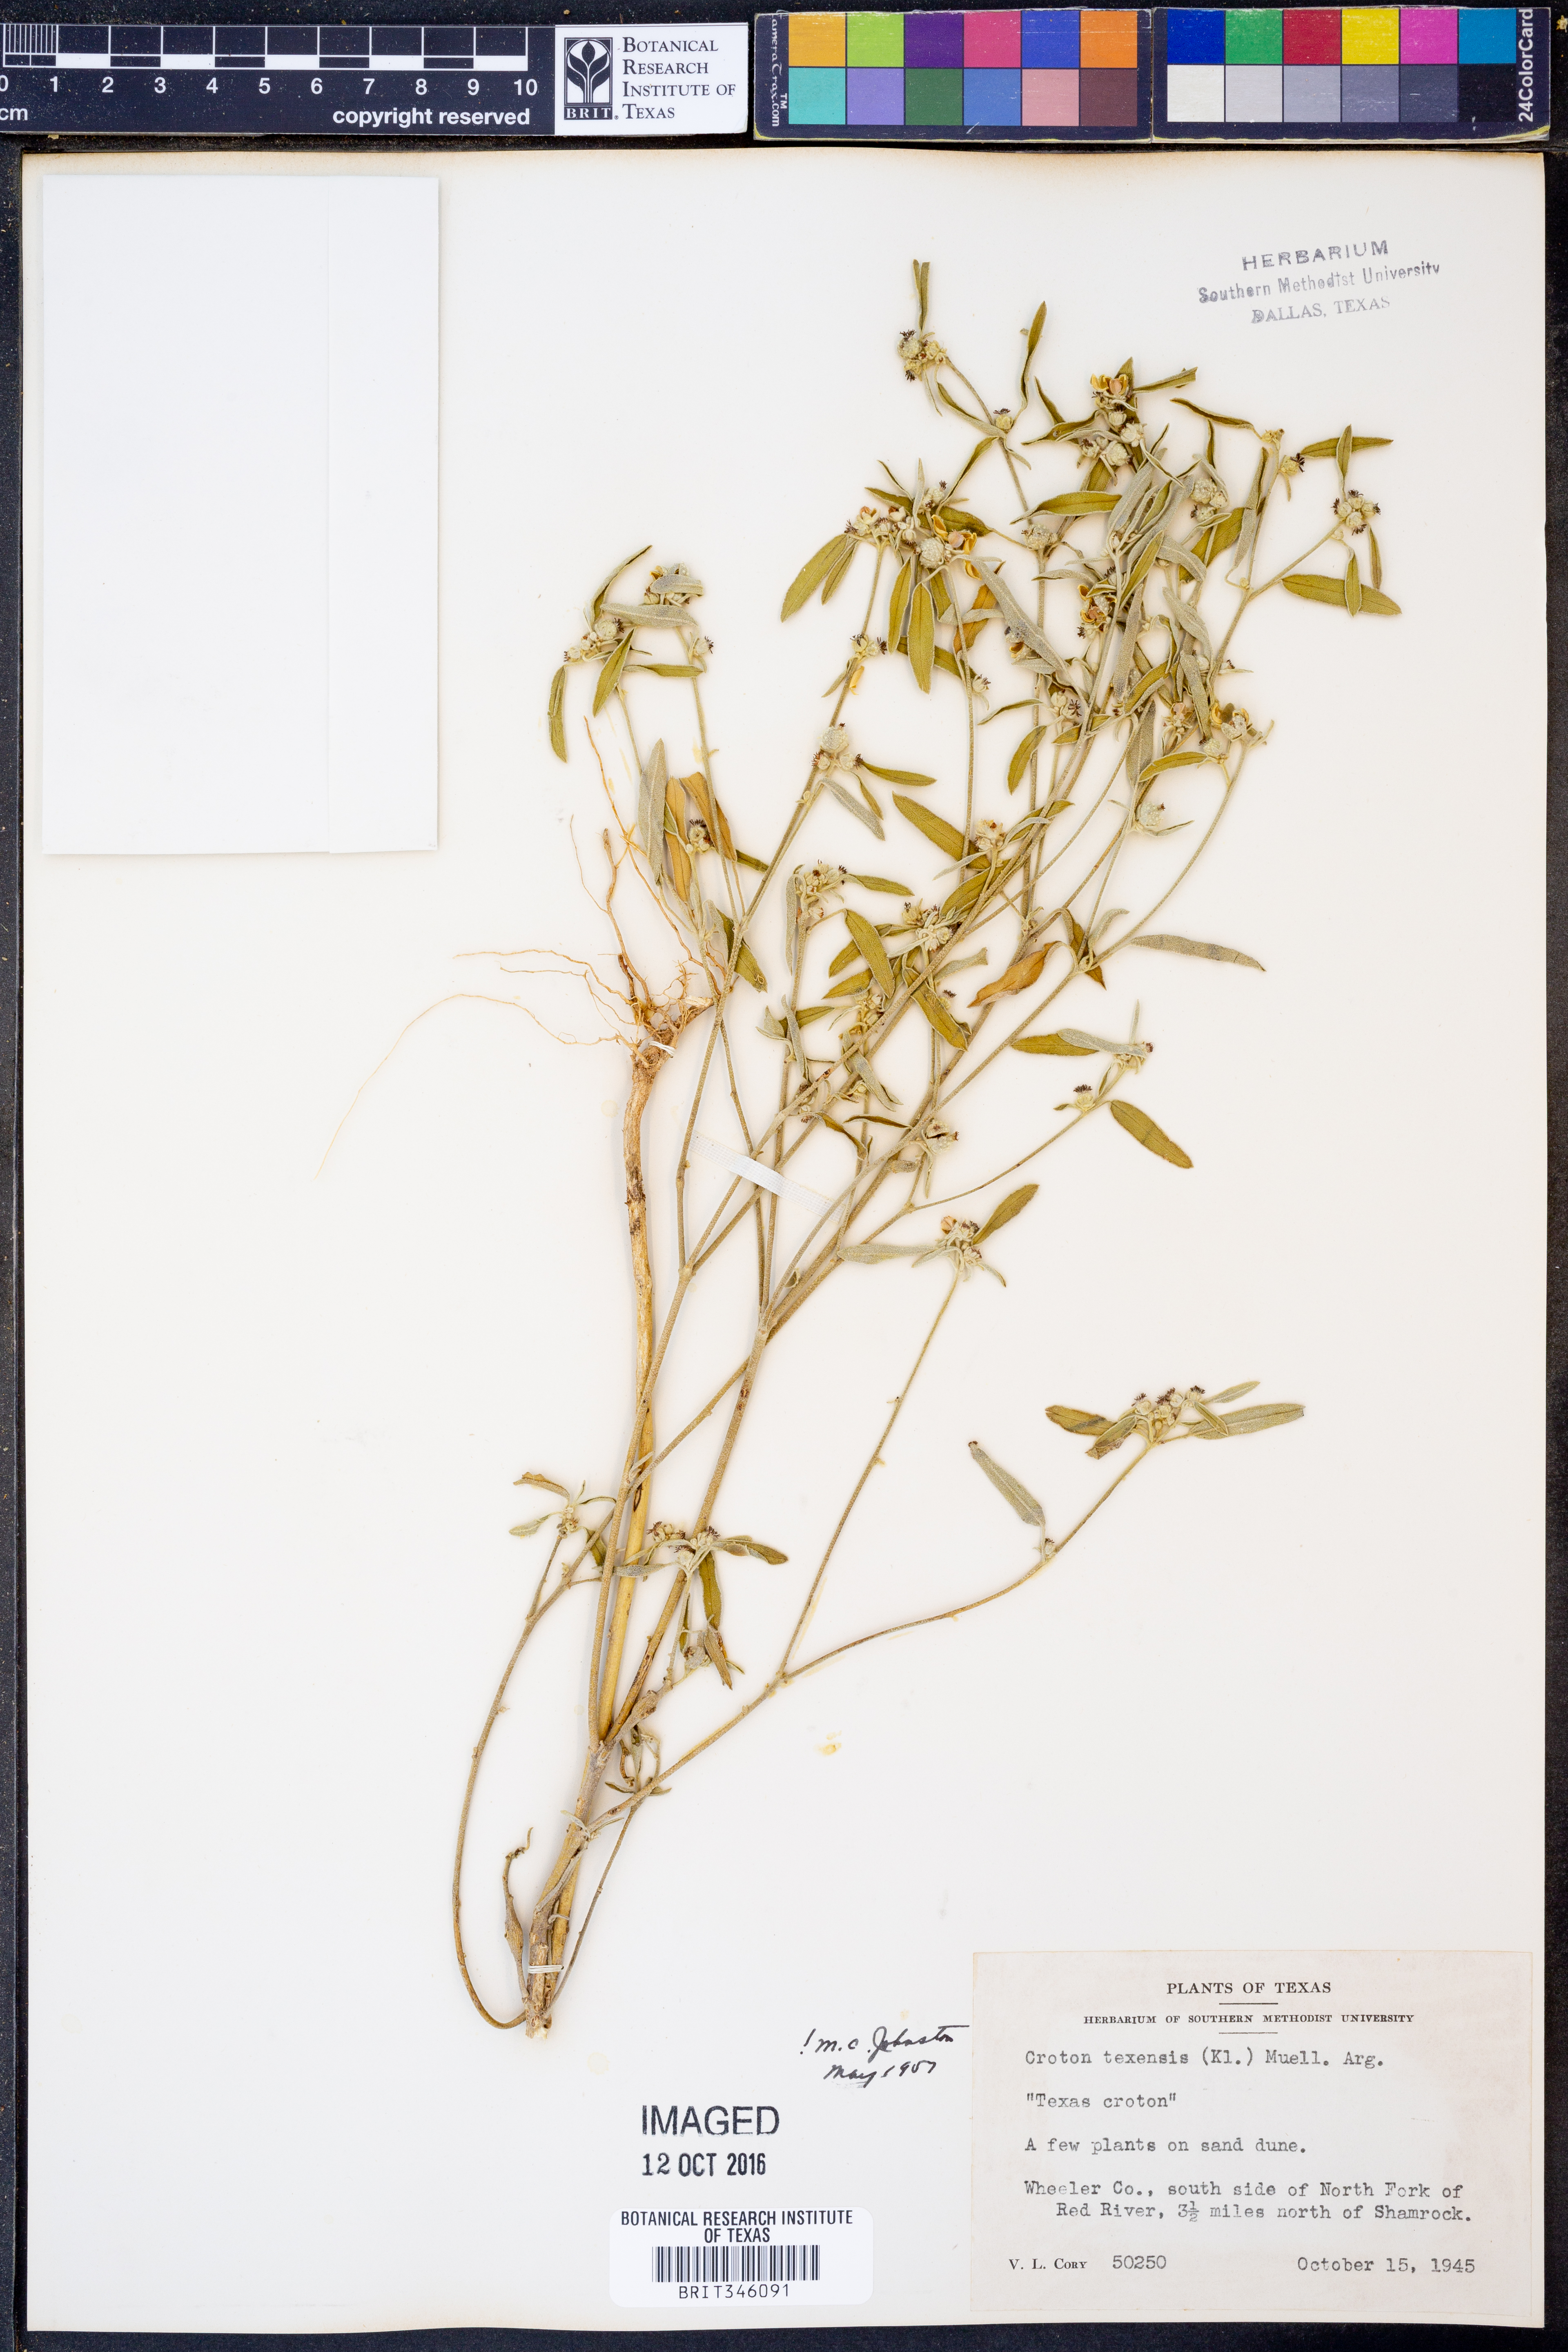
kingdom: Plantae
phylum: Tracheophyta
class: Magnoliopsida
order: Malpighiales
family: Euphorbiaceae
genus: Croton
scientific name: Croton texensis
